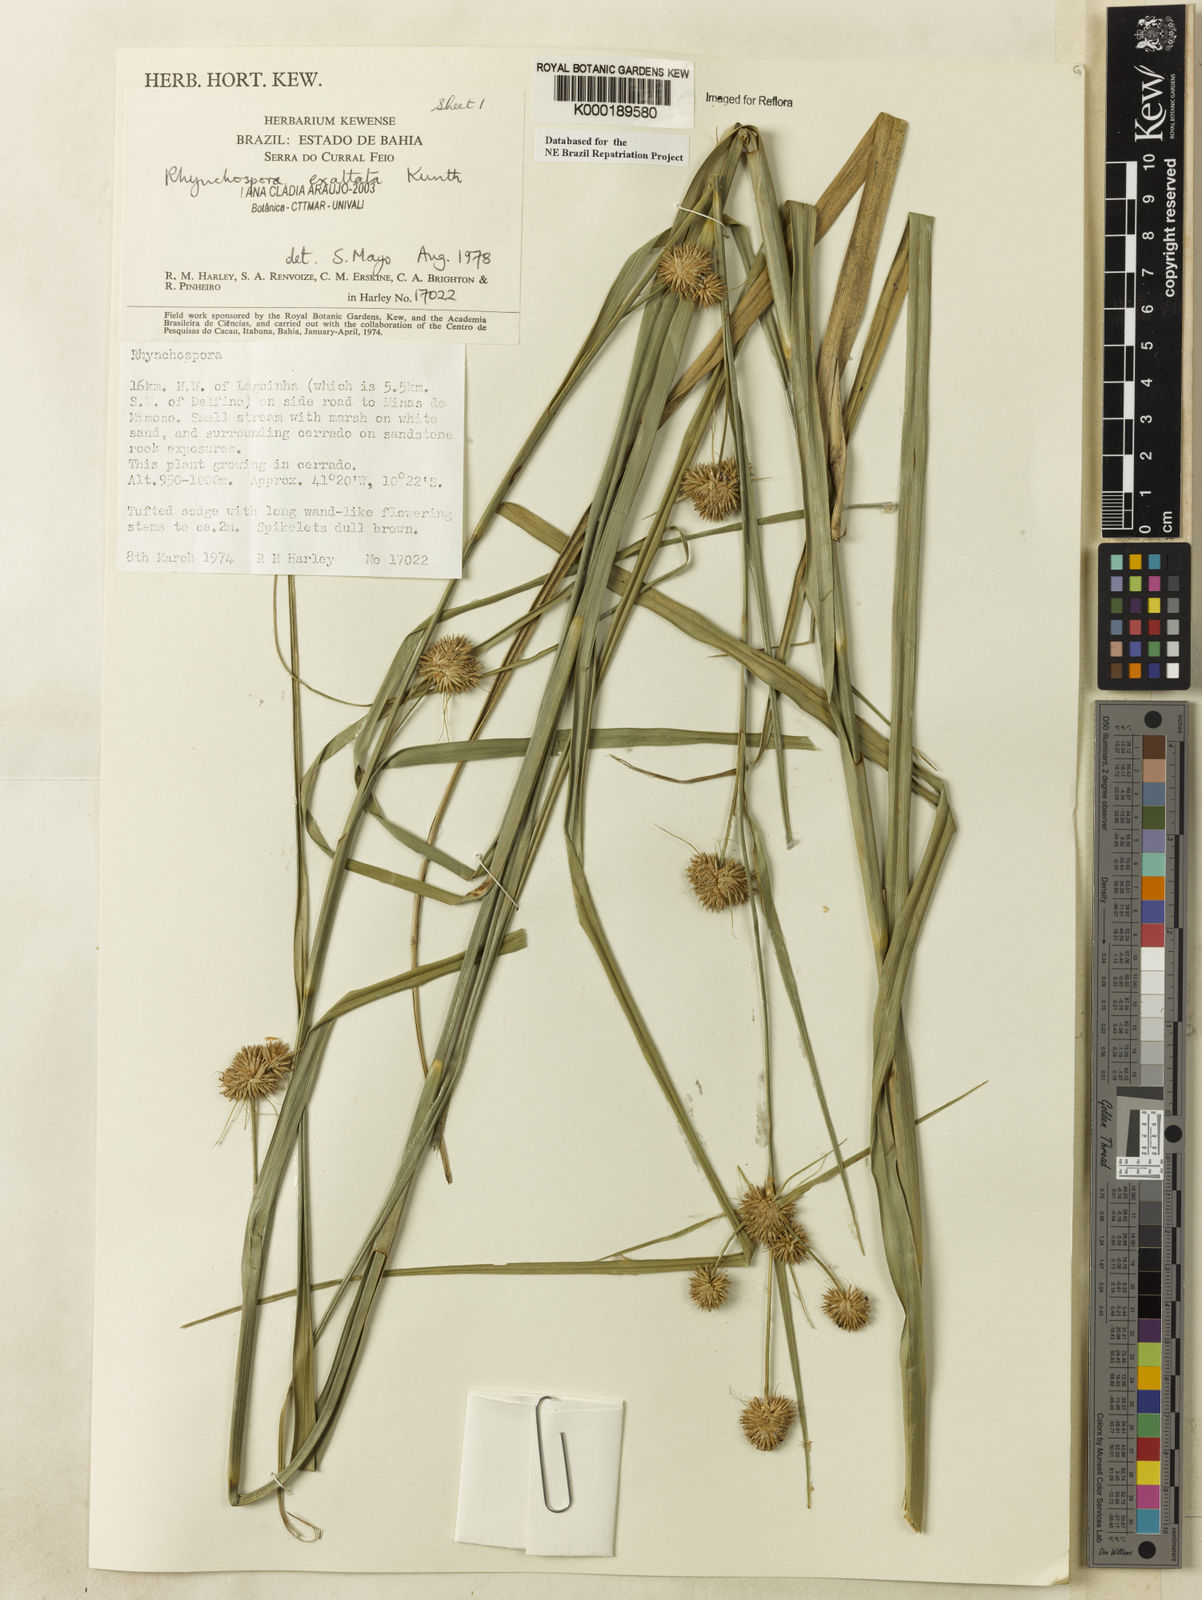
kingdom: Plantae
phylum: Tracheophyta
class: Liliopsida
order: Poales
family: Cyperaceae
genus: Rhynchospora
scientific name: Rhynchospora exaltata
